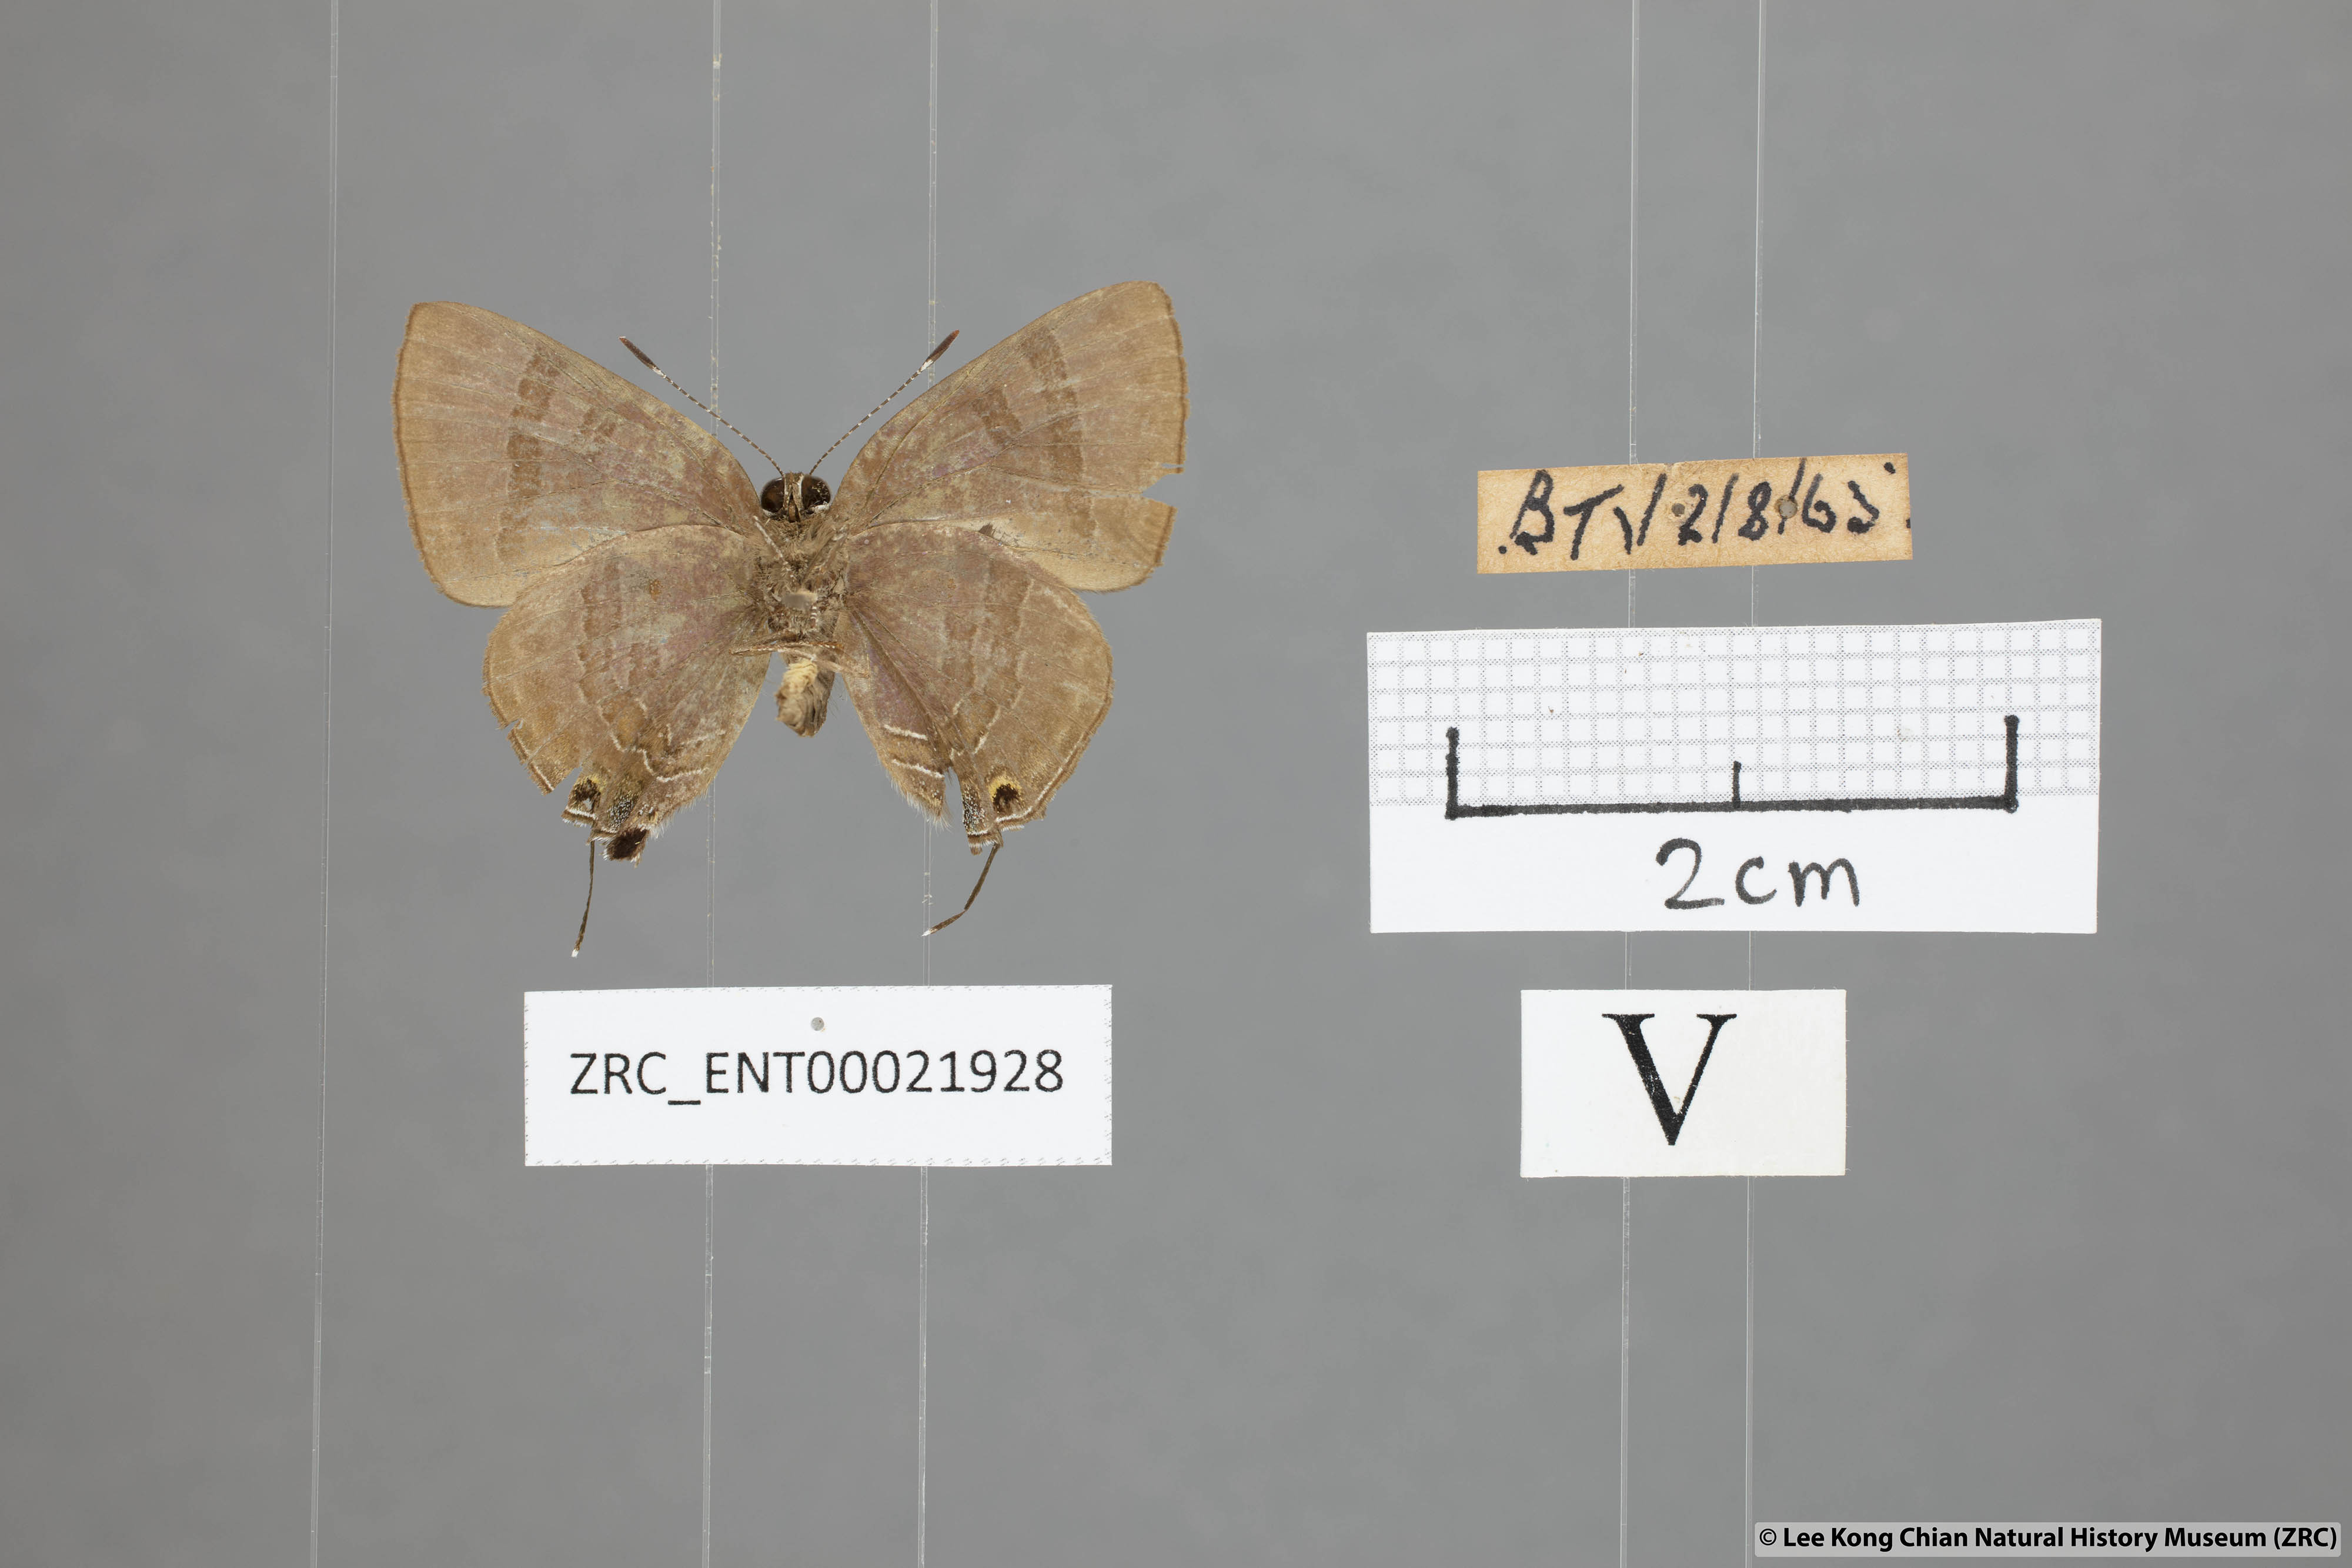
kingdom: Animalia
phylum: Arthropoda
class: Insecta
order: Lepidoptera
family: Lycaenidae
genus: Rapala
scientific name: Rapala varuna
